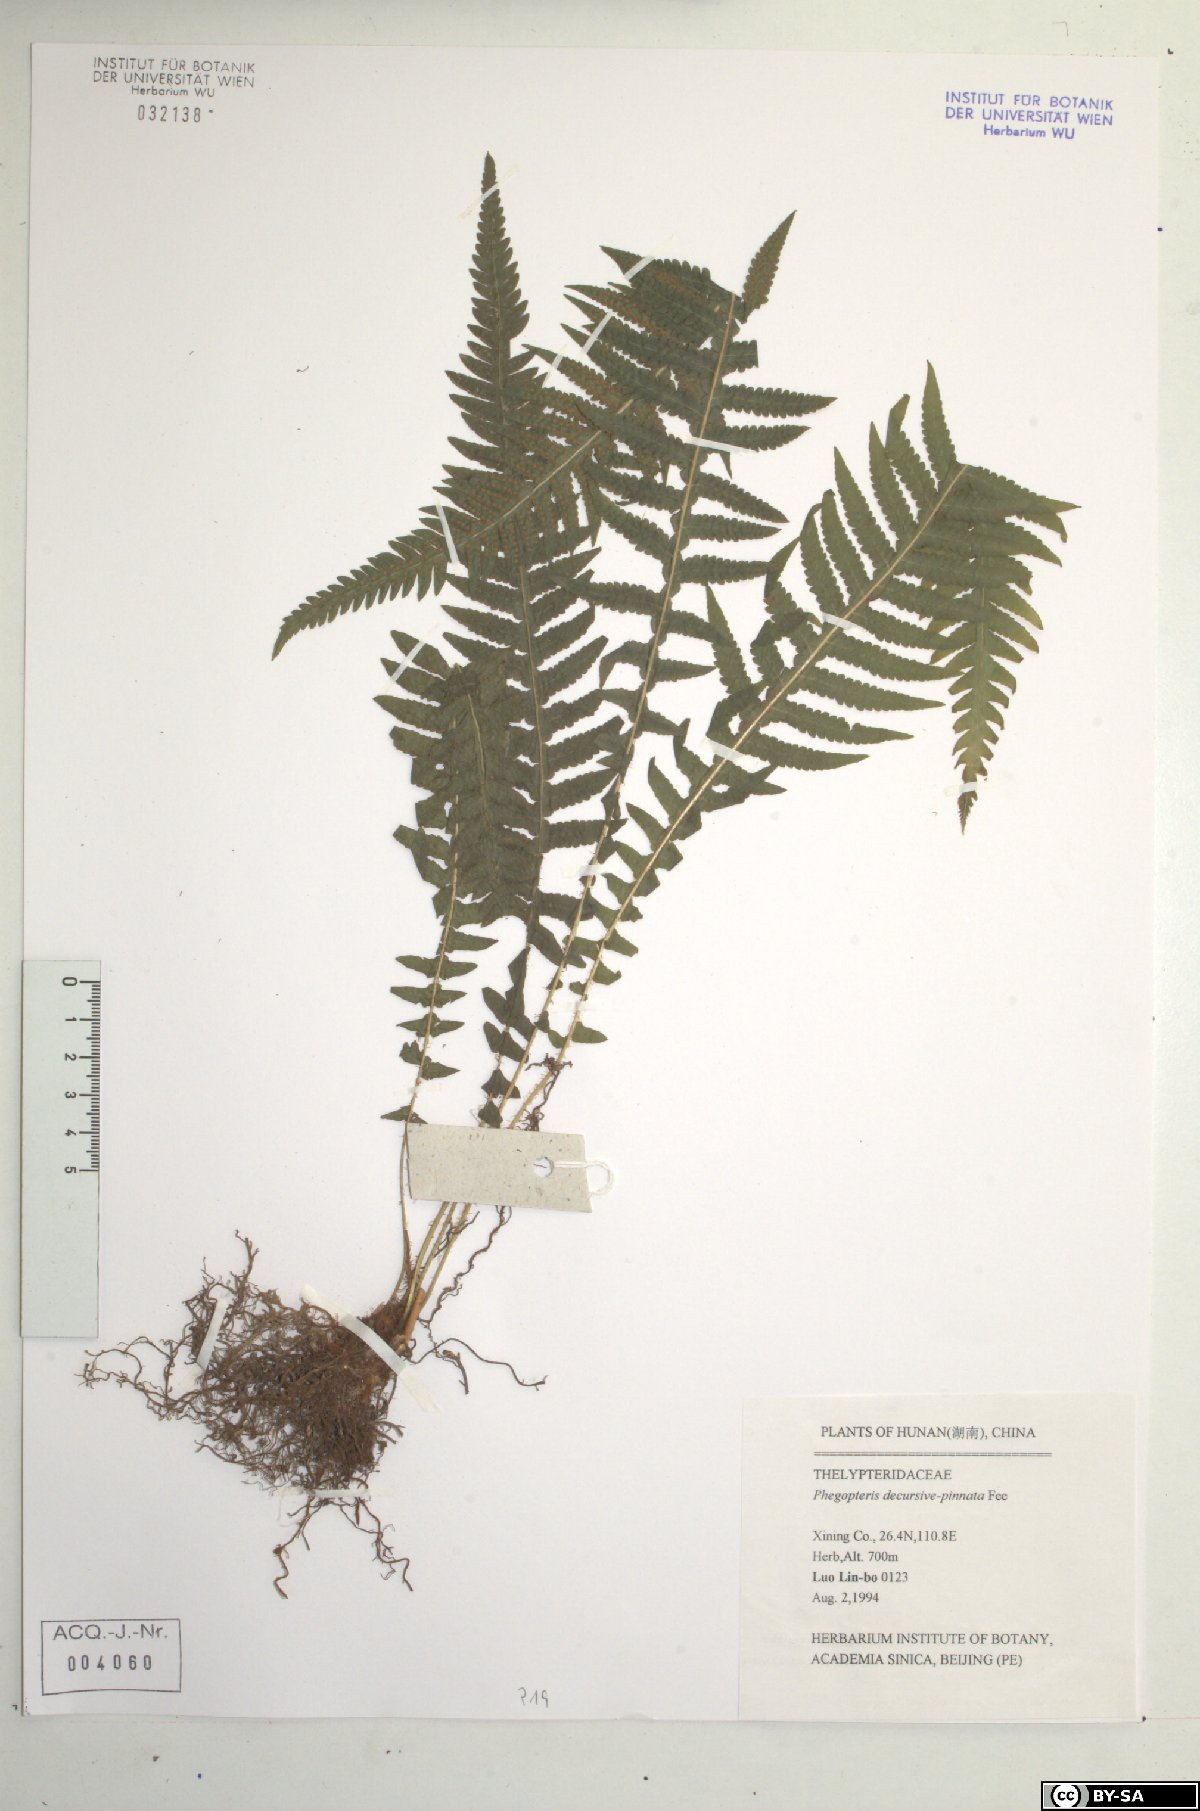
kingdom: Plantae
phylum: Tracheophyta
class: Polypodiopsida
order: Polypodiales
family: Thelypteridaceae
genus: Phegopteris
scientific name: Phegopteris decursive-pinnata
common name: Japanese beech fern
